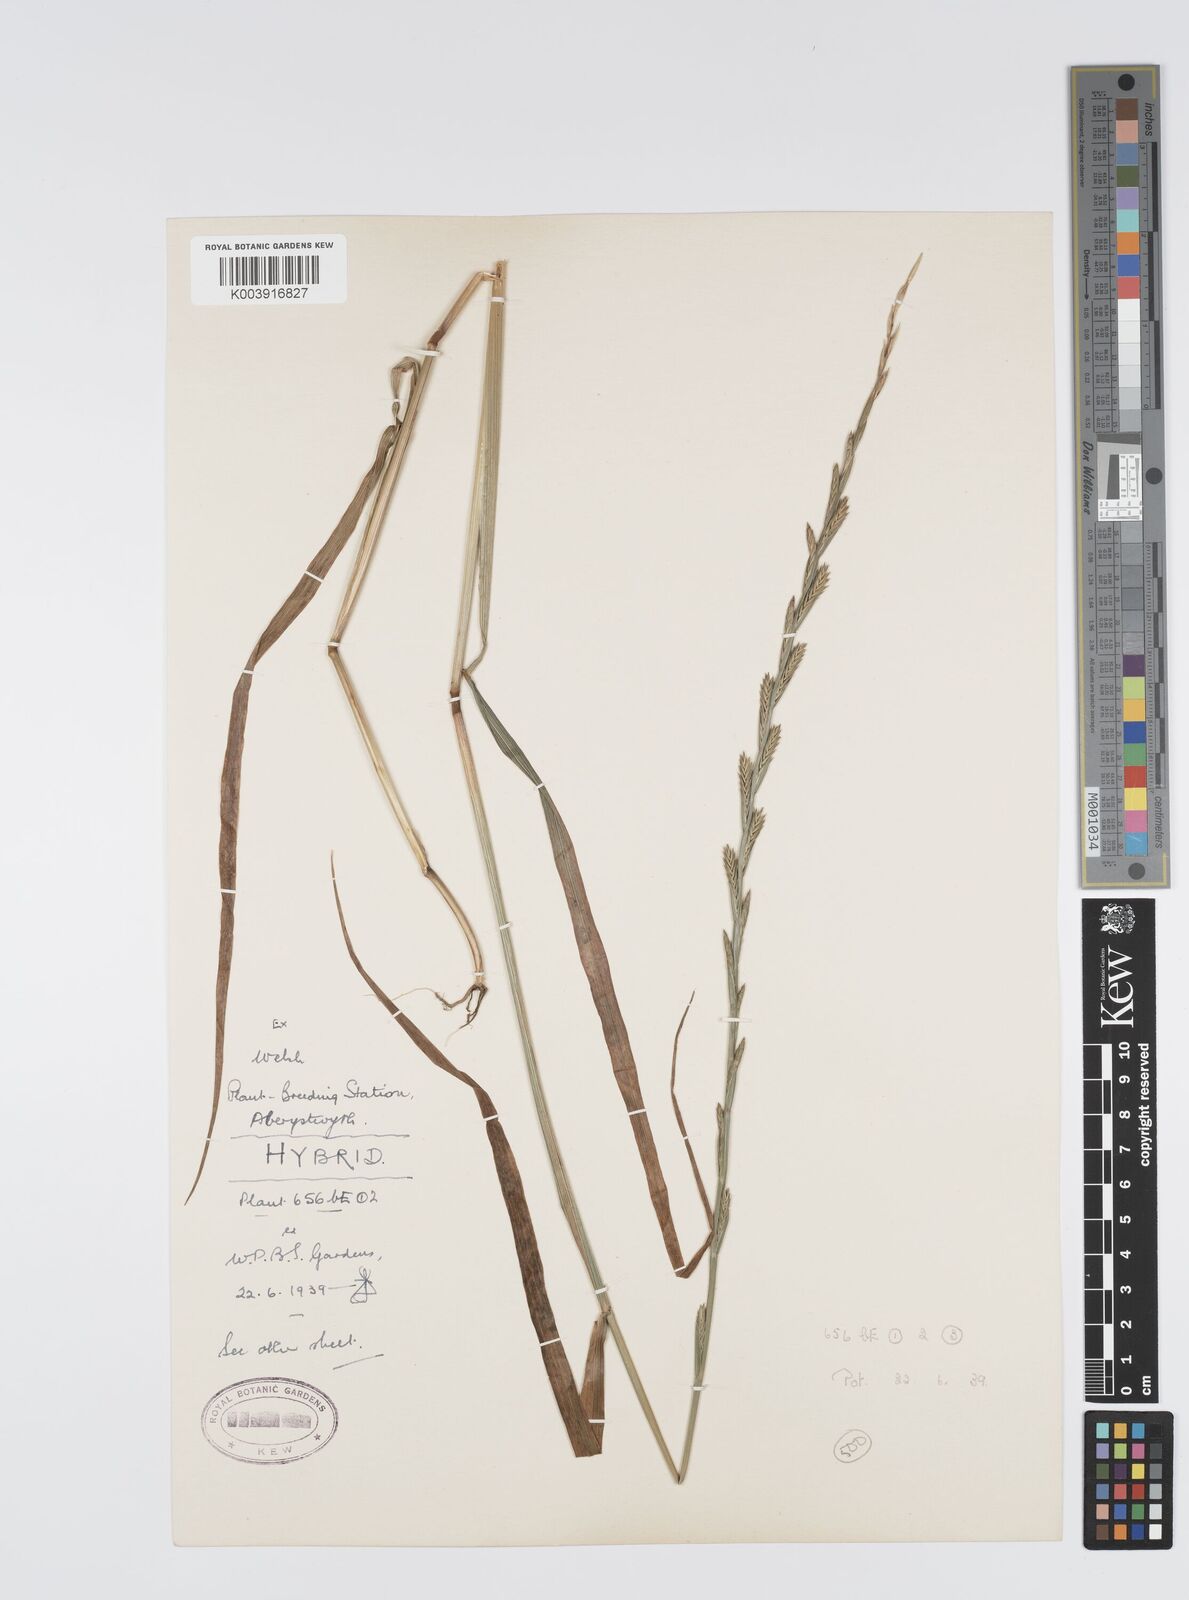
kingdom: Plantae
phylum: Tracheophyta
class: Liliopsida
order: Poales
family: Poaceae
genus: Lolium
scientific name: Lolium perenne
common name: Perennial ryegrass
